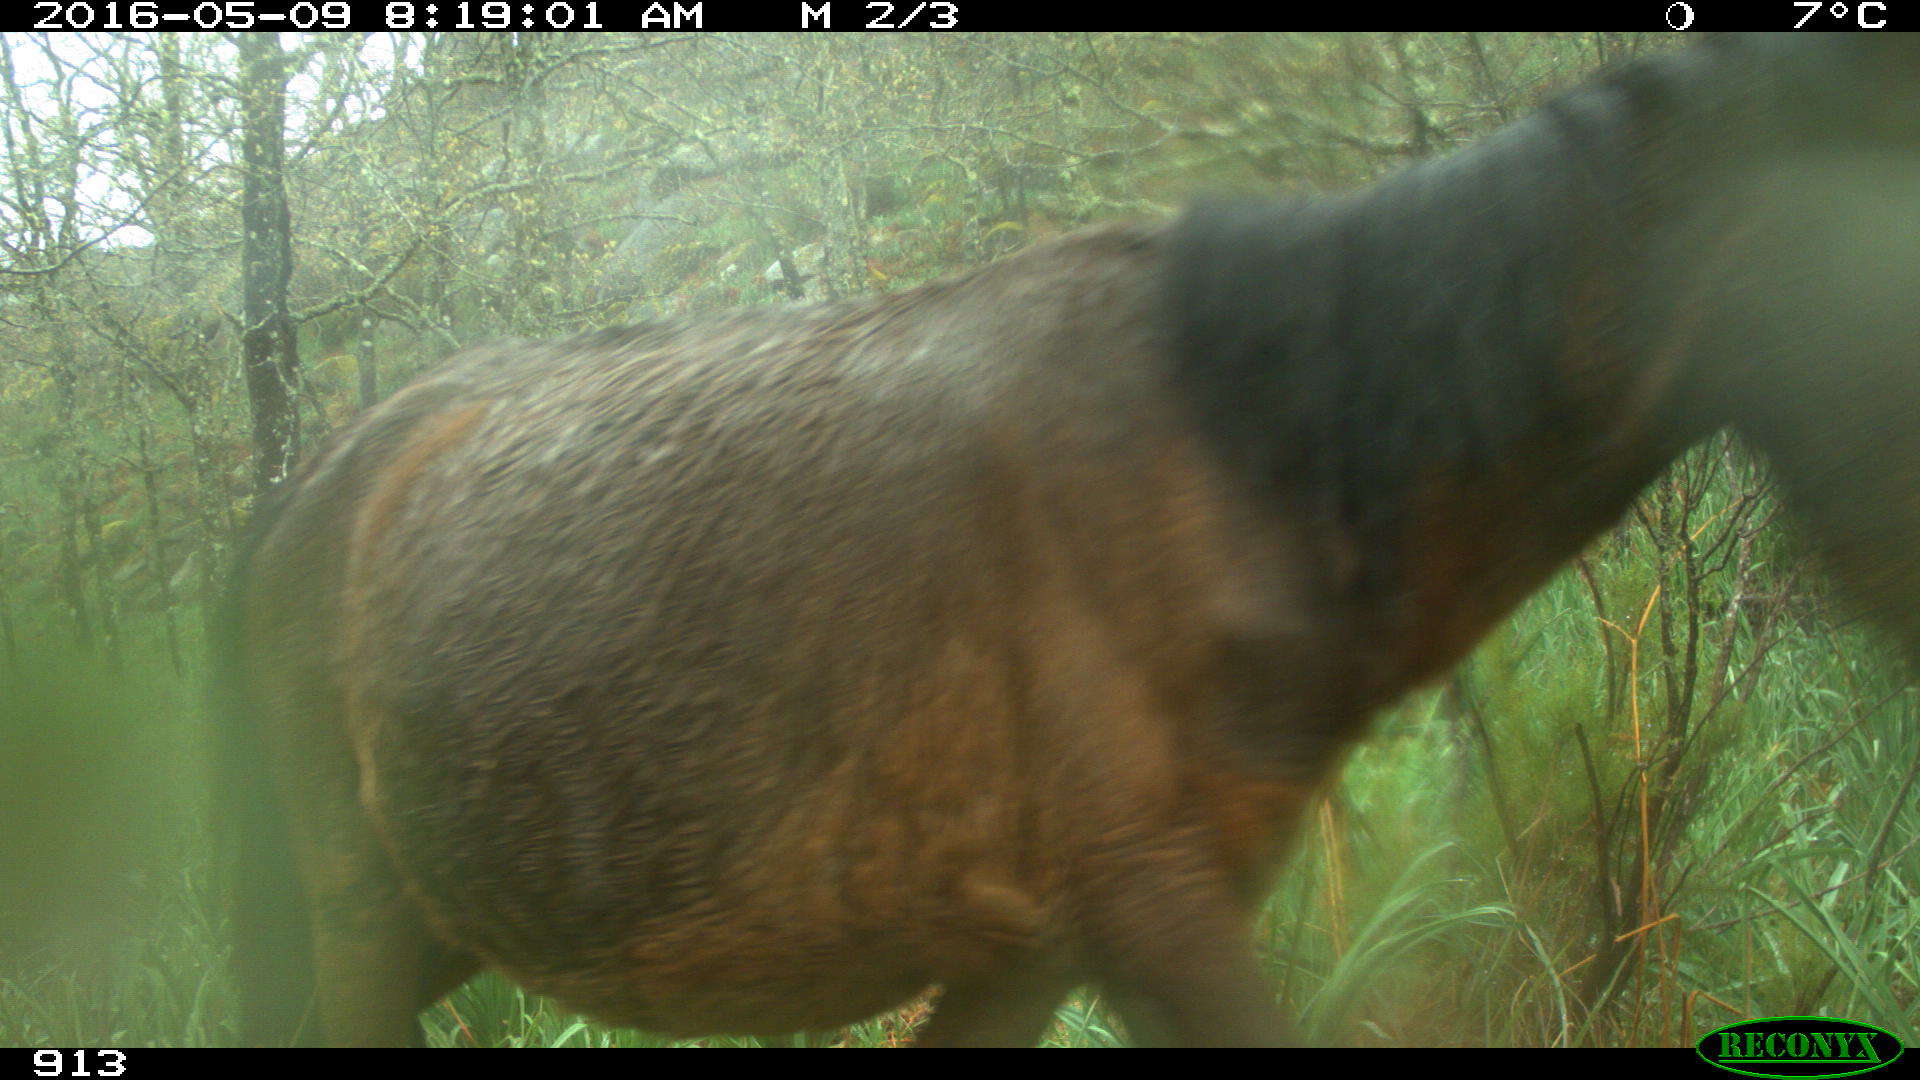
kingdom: Animalia
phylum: Chordata
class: Mammalia
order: Perissodactyla
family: Equidae
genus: Equus
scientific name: Equus caballus
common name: Horse
